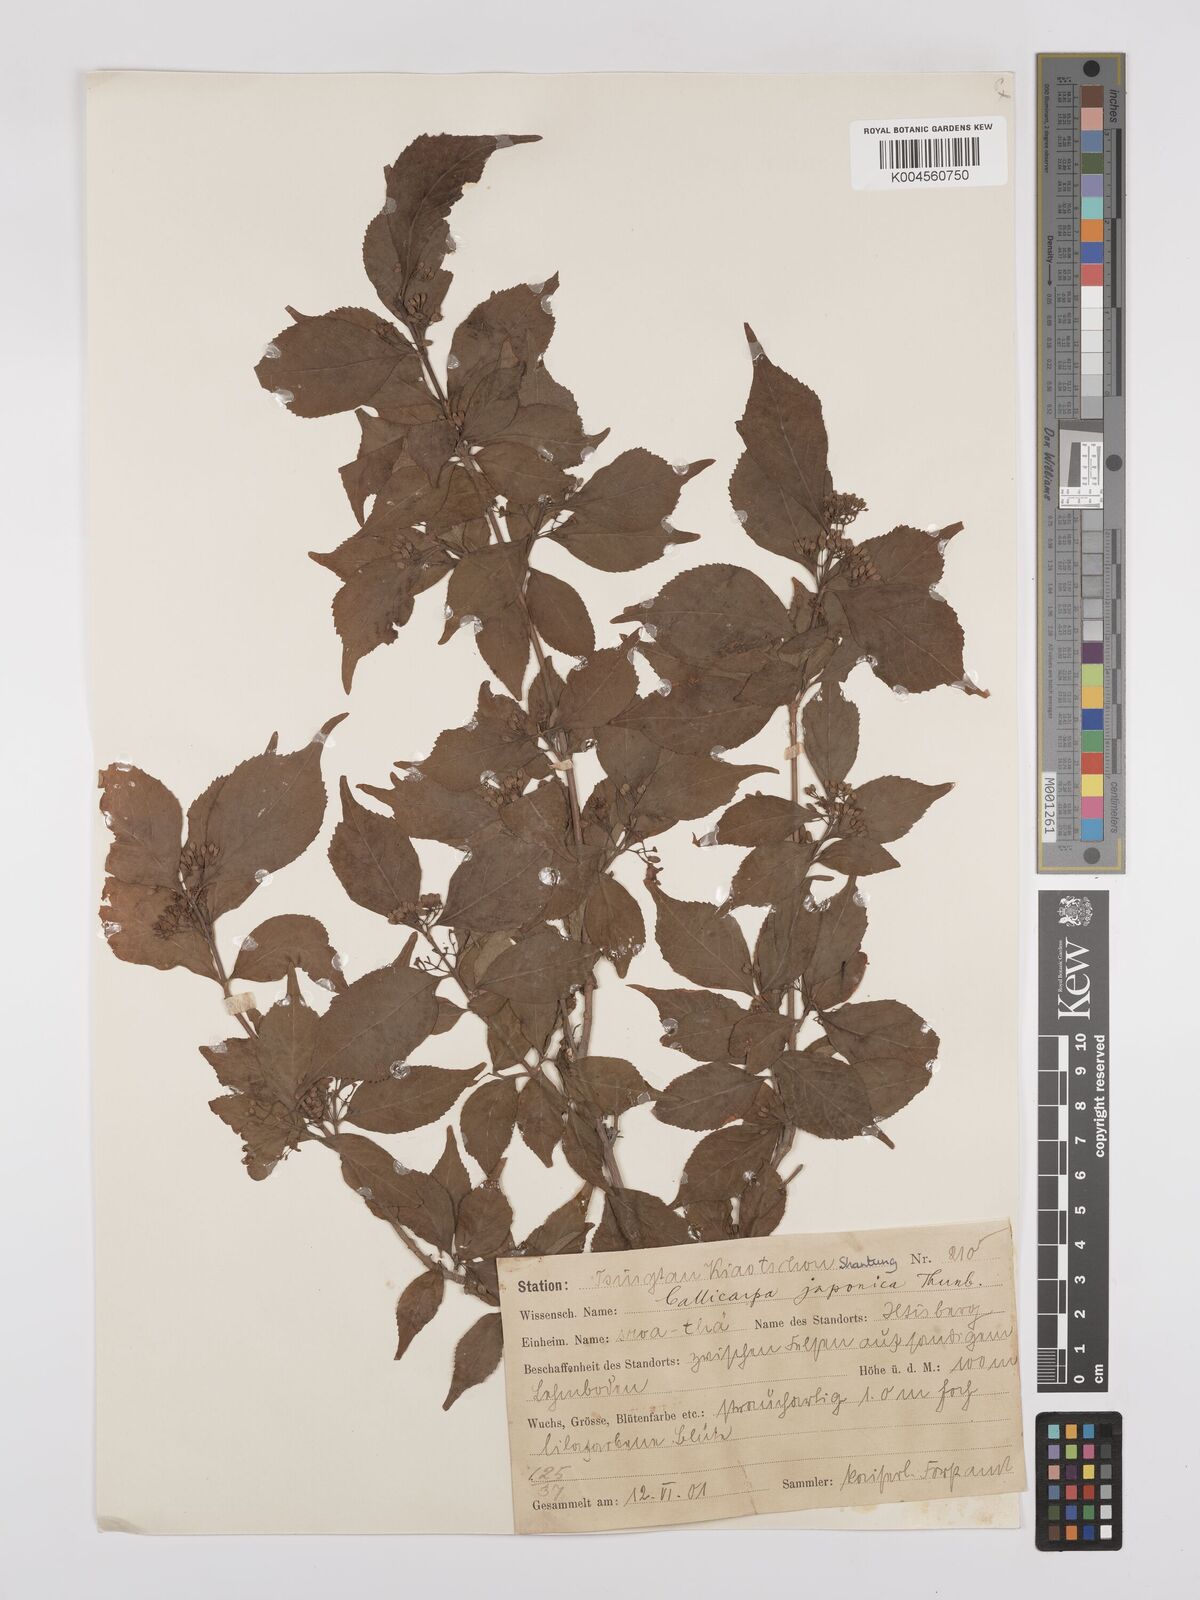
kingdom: Plantae
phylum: Tracheophyta
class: Magnoliopsida
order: Lamiales
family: Lamiaceae
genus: Callicarpa
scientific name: Callicarpa japonica
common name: Japanese beauty-berry
